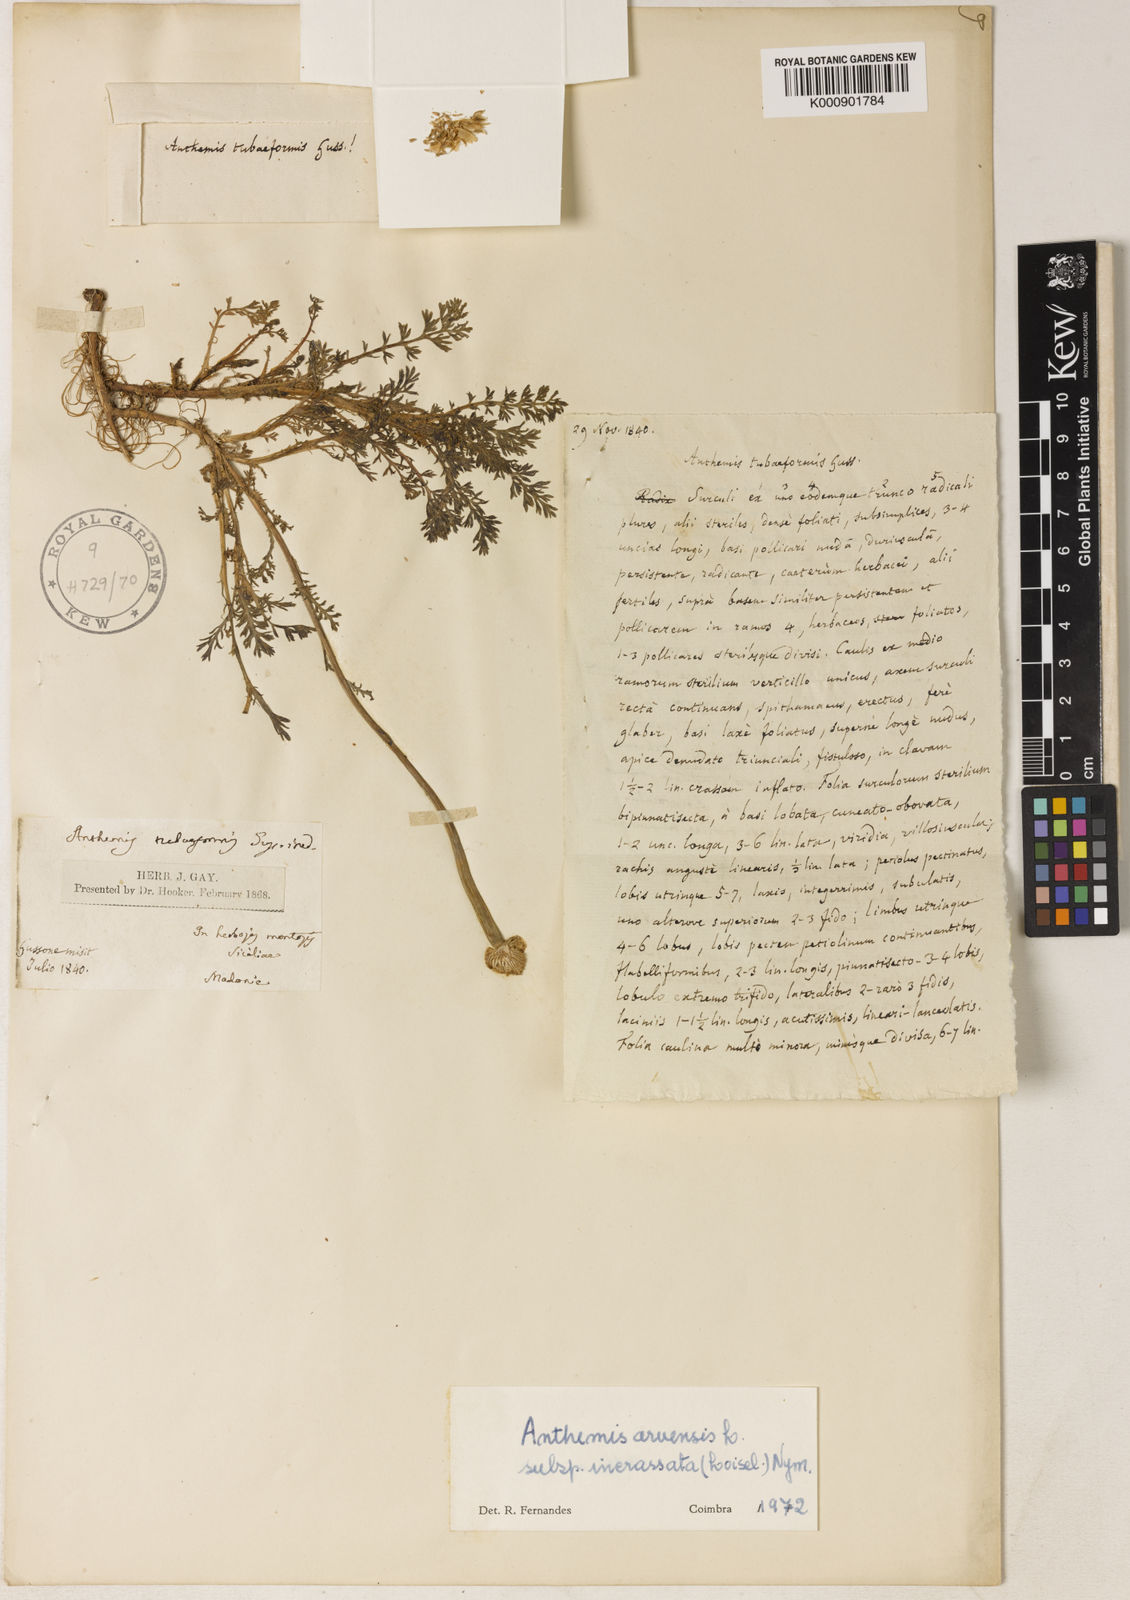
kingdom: Plantae
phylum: Tracheophyta
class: Magnoliopsida
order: Asterales
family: Asteraceae
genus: Anthemis
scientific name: Anthemis arvensis
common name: Corn chamomile
